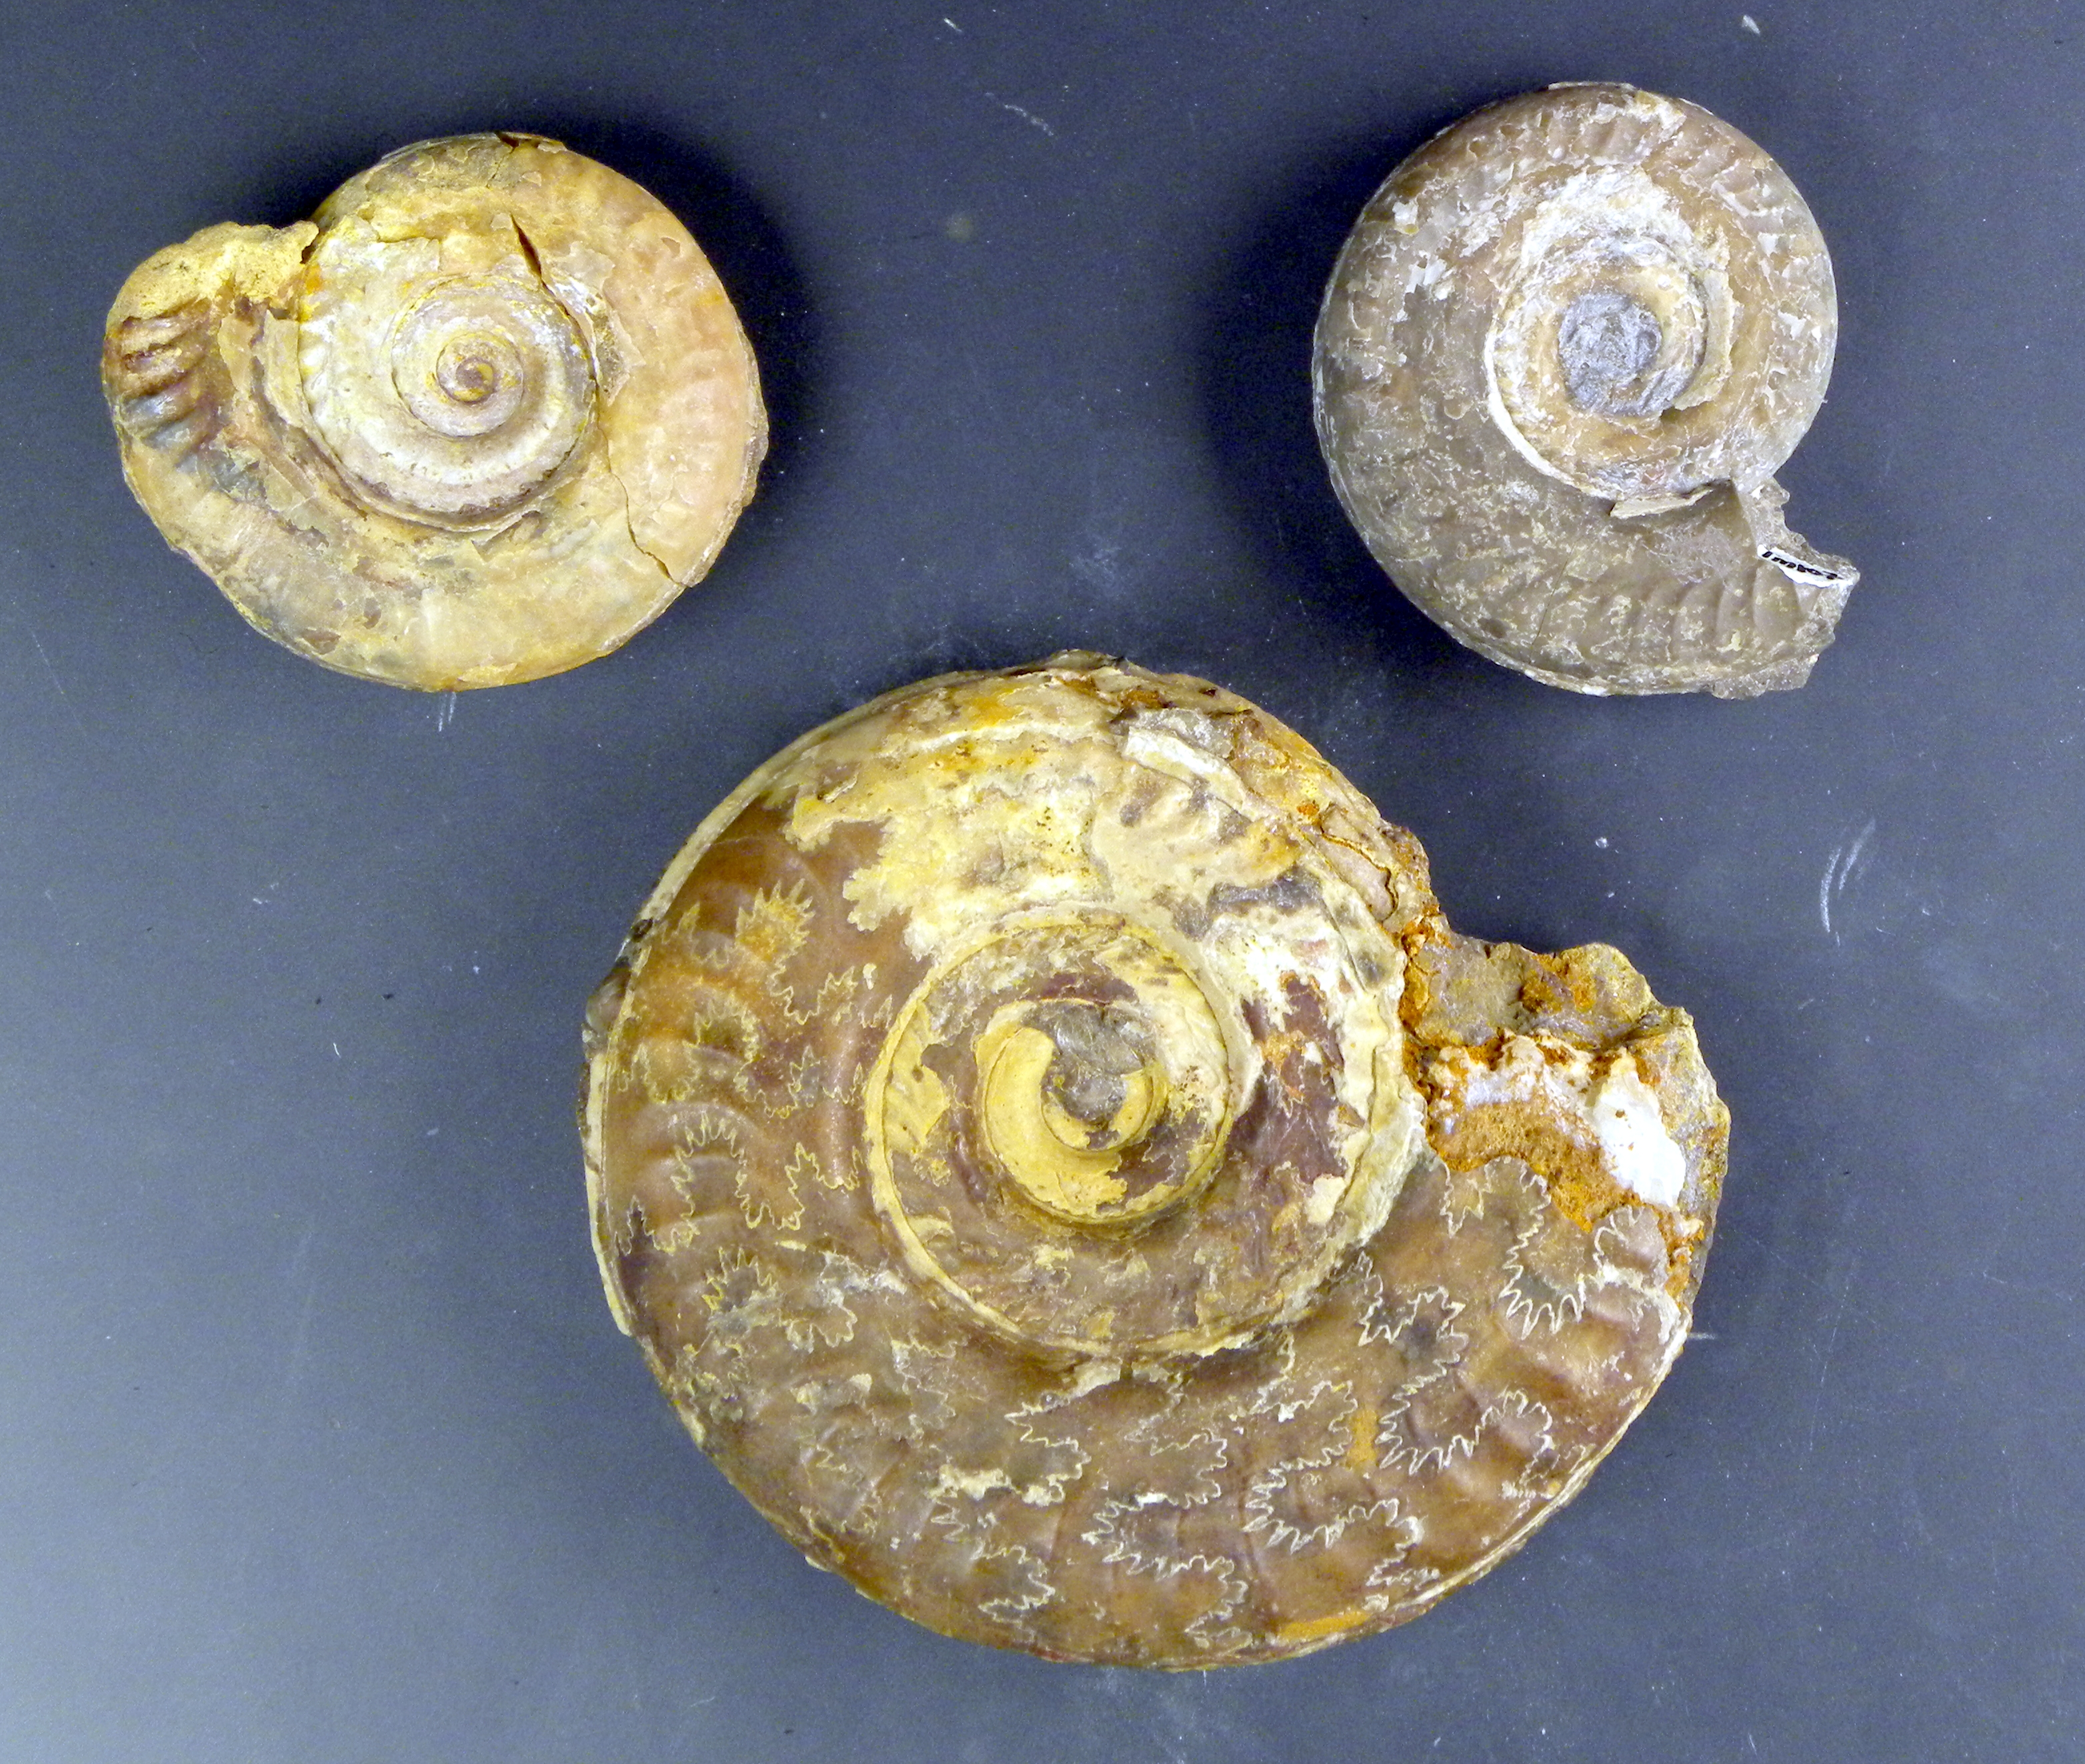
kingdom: Animalia
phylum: Mollusca
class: Cephalopoda
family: Hildoceratidae
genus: Hildoceras
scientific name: Hildoceras apertum
